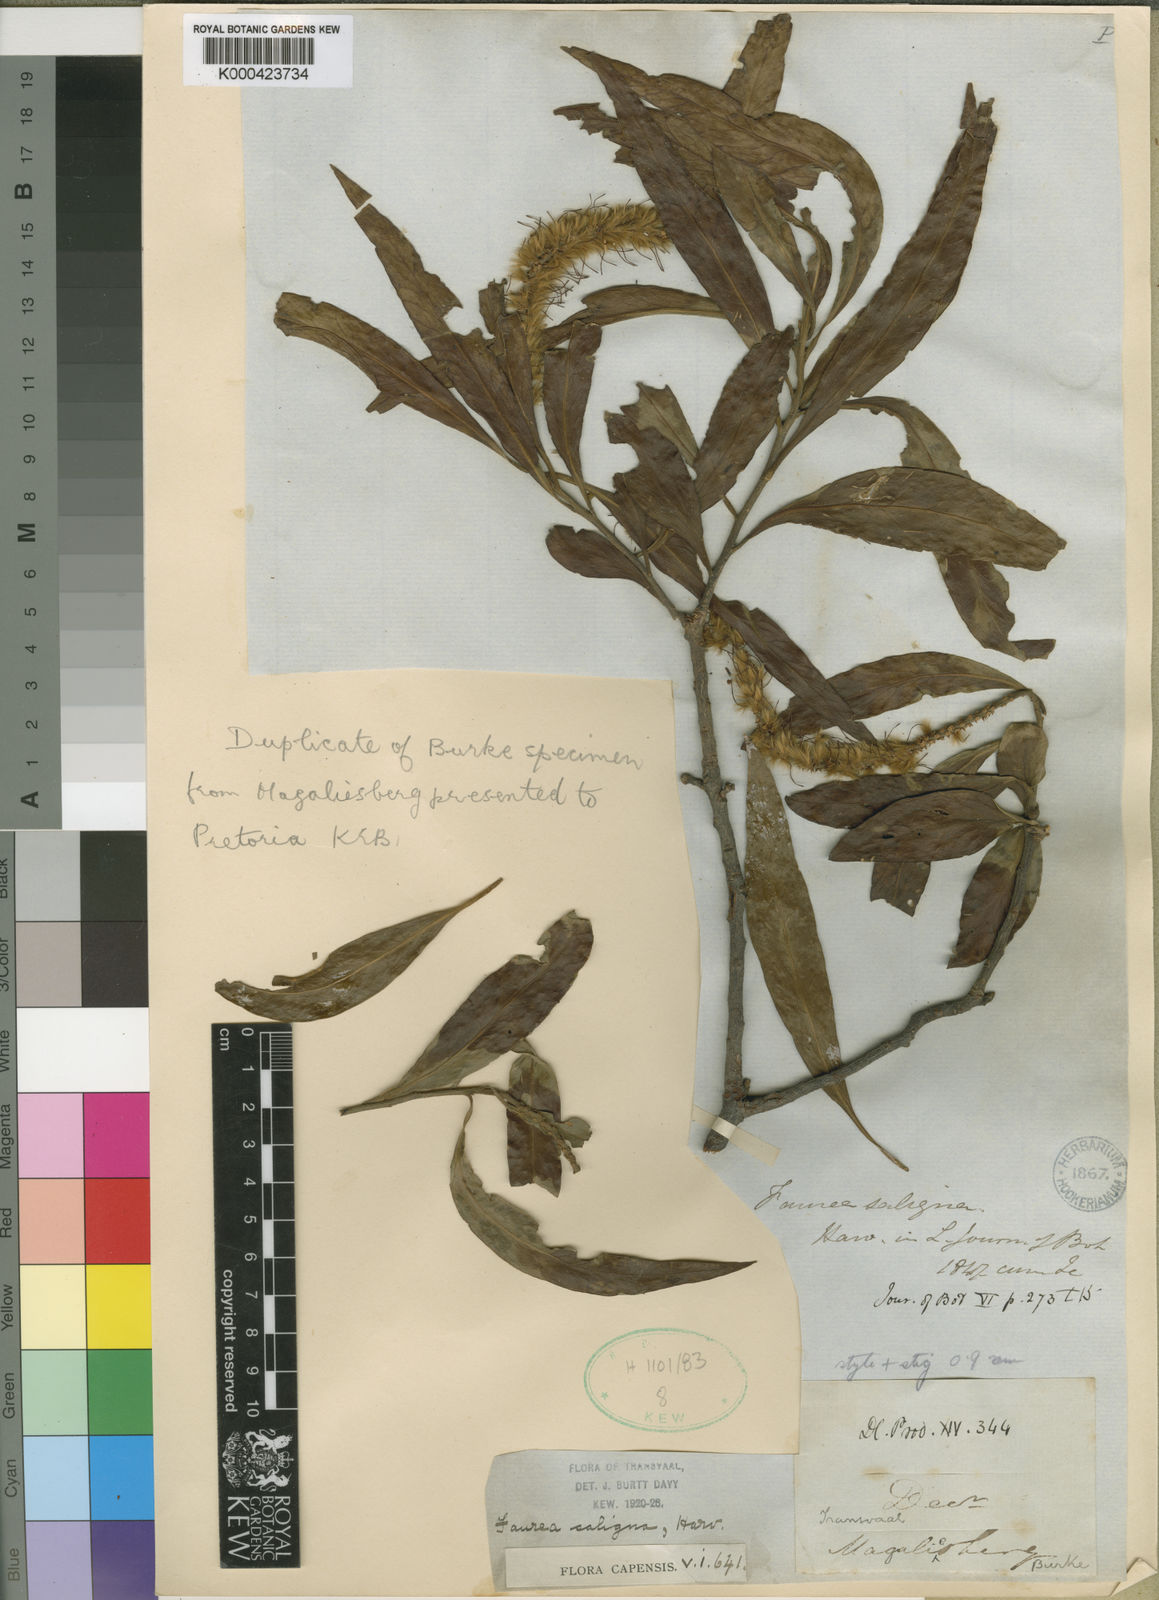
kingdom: Plantae
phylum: Tracheophyta
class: Magnoliopsida
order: Proteales
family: Proteaceae
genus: Faurea
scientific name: Faurea saligna
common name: African bean
